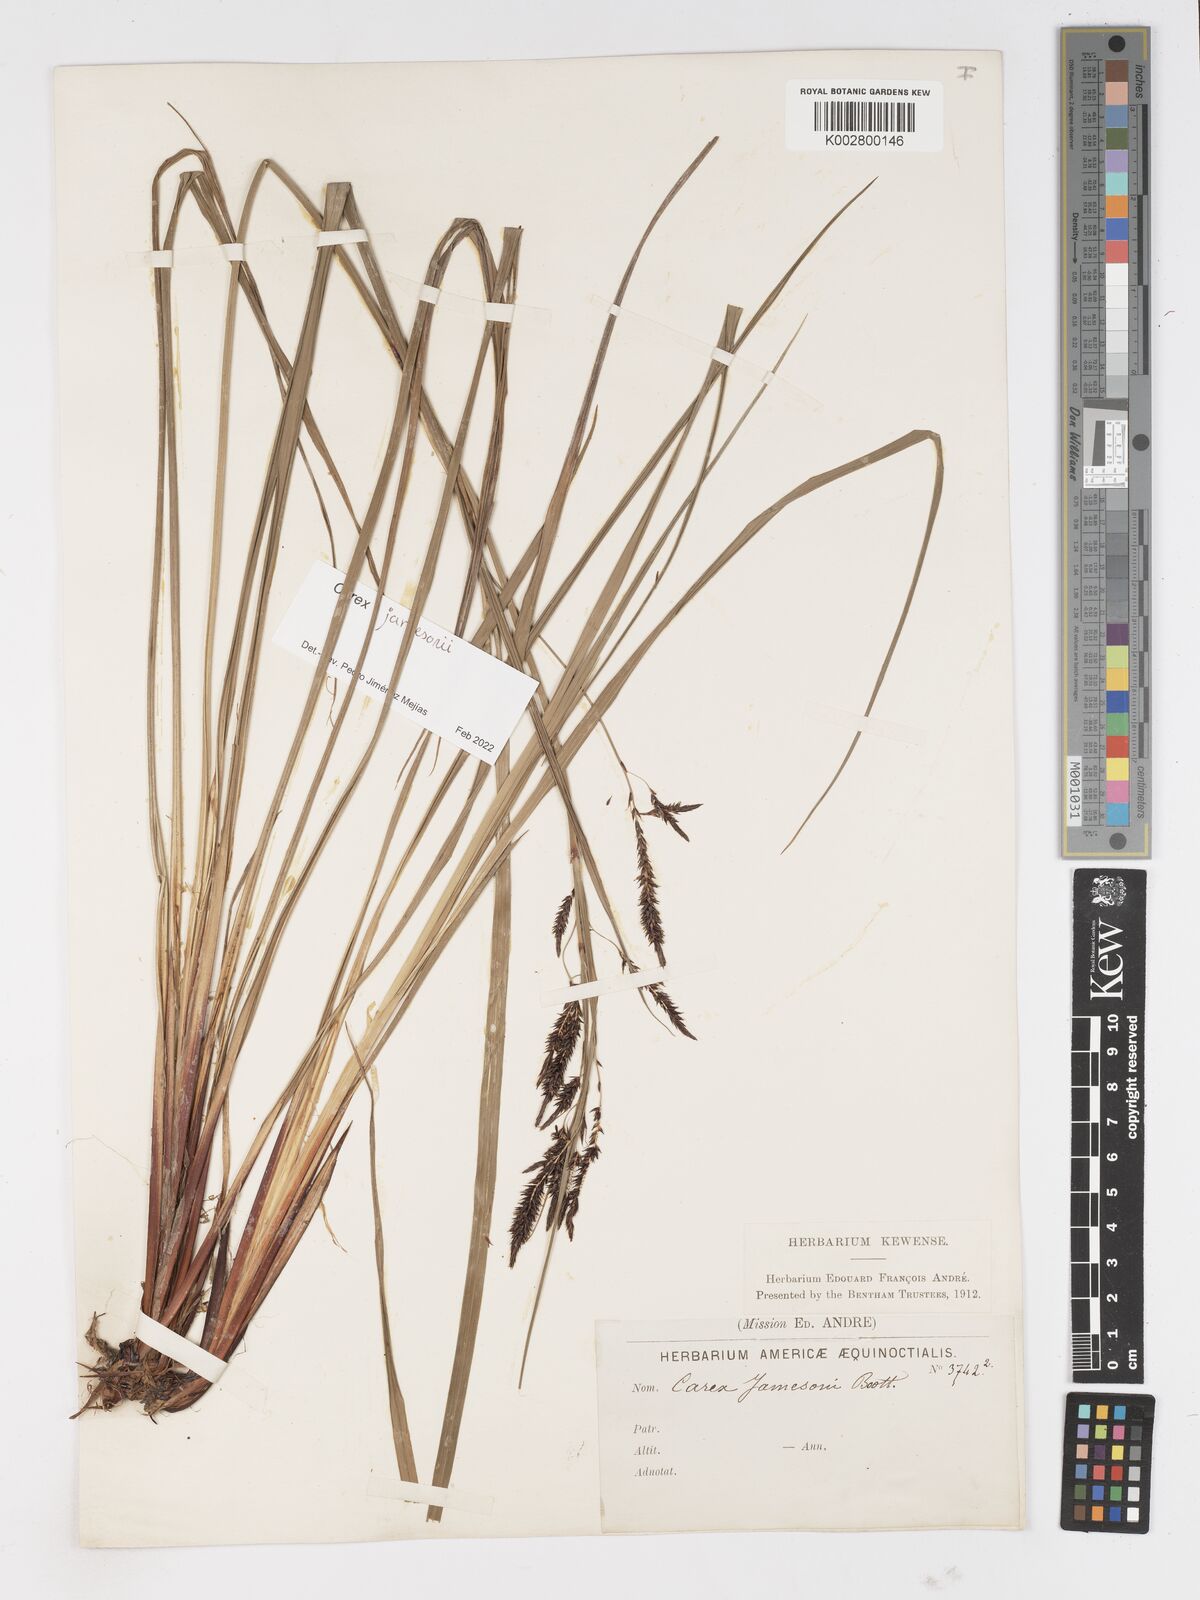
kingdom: Plantae
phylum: Tracheophyta
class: Liliopsida
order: Poales
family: Cyperaceae
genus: Carex
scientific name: Carex jamesonii
